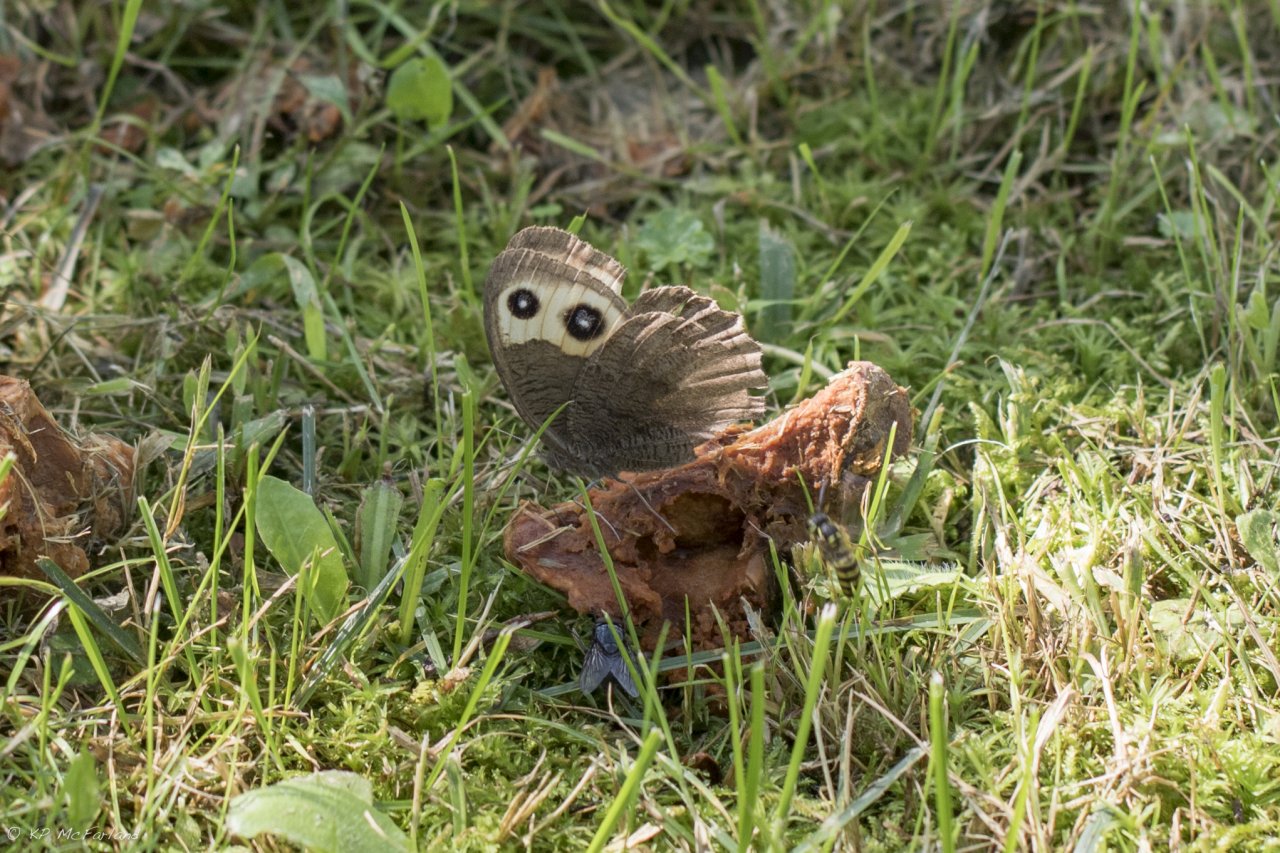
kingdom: Animalia
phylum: Arthropoda
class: Insecta
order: Lepidoptera
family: Nymphalidae
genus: Cercyonis
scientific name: Cercyonis pegala
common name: Common Wood-Nymph
